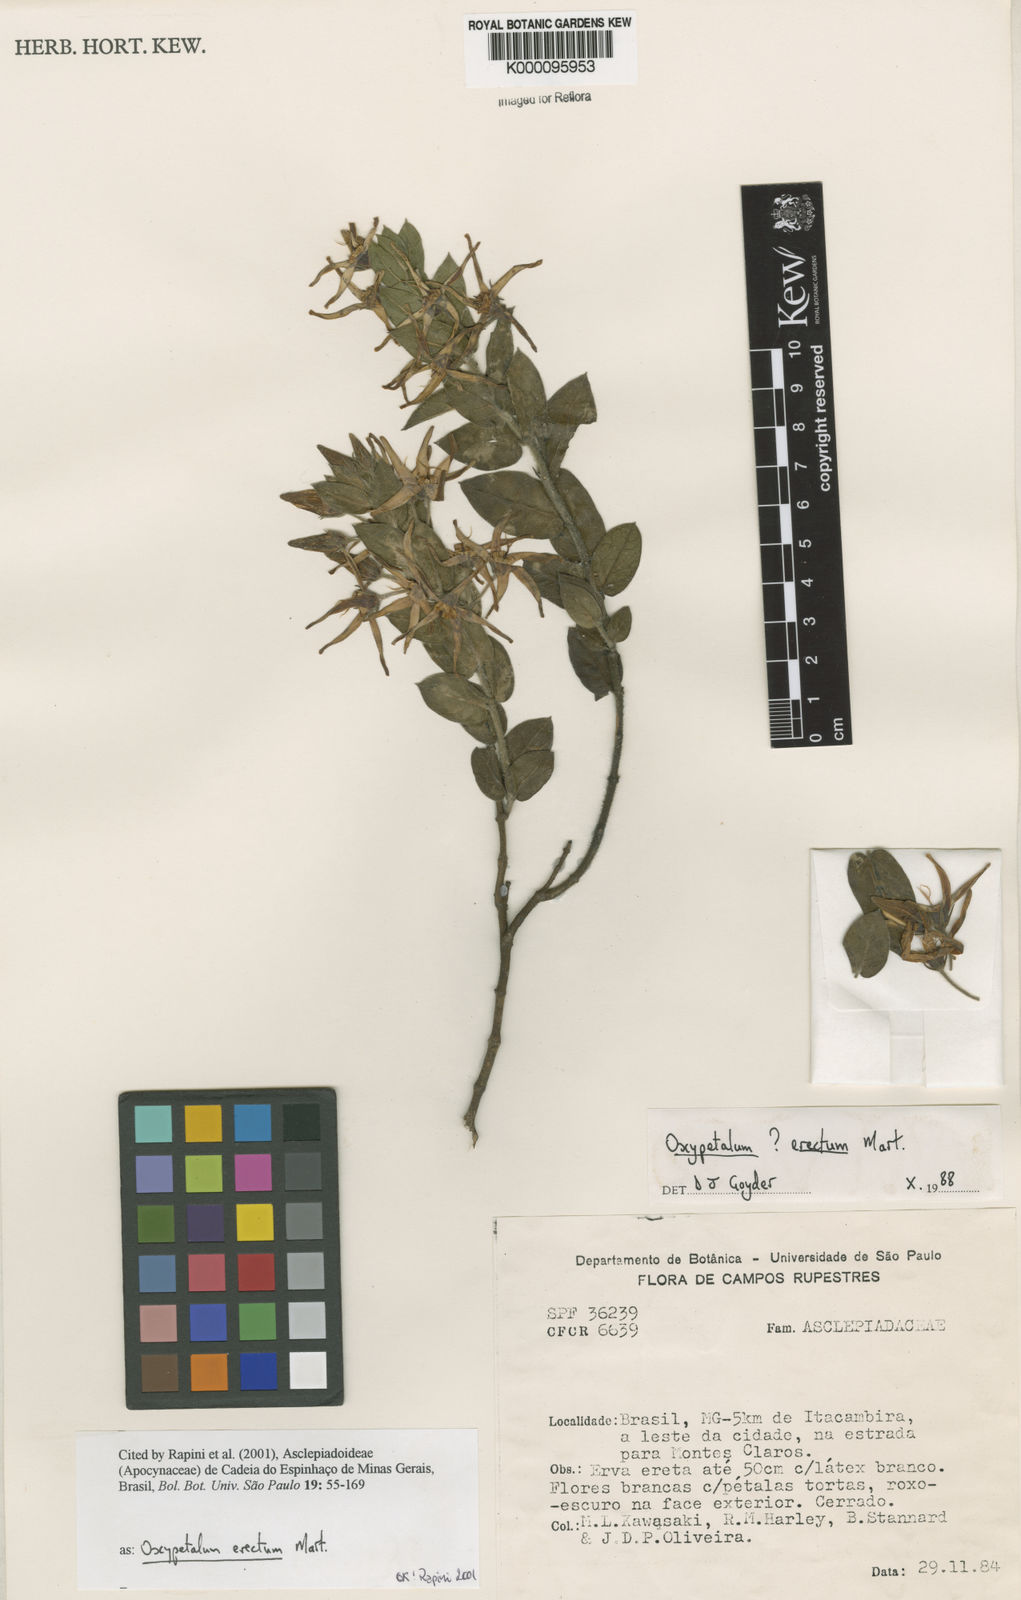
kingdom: Plantae
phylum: Tracheophyta
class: Magnoliopsida
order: Gentianales
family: Apocynaceae
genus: Oxypetalum
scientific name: Oxypetalum erectum
